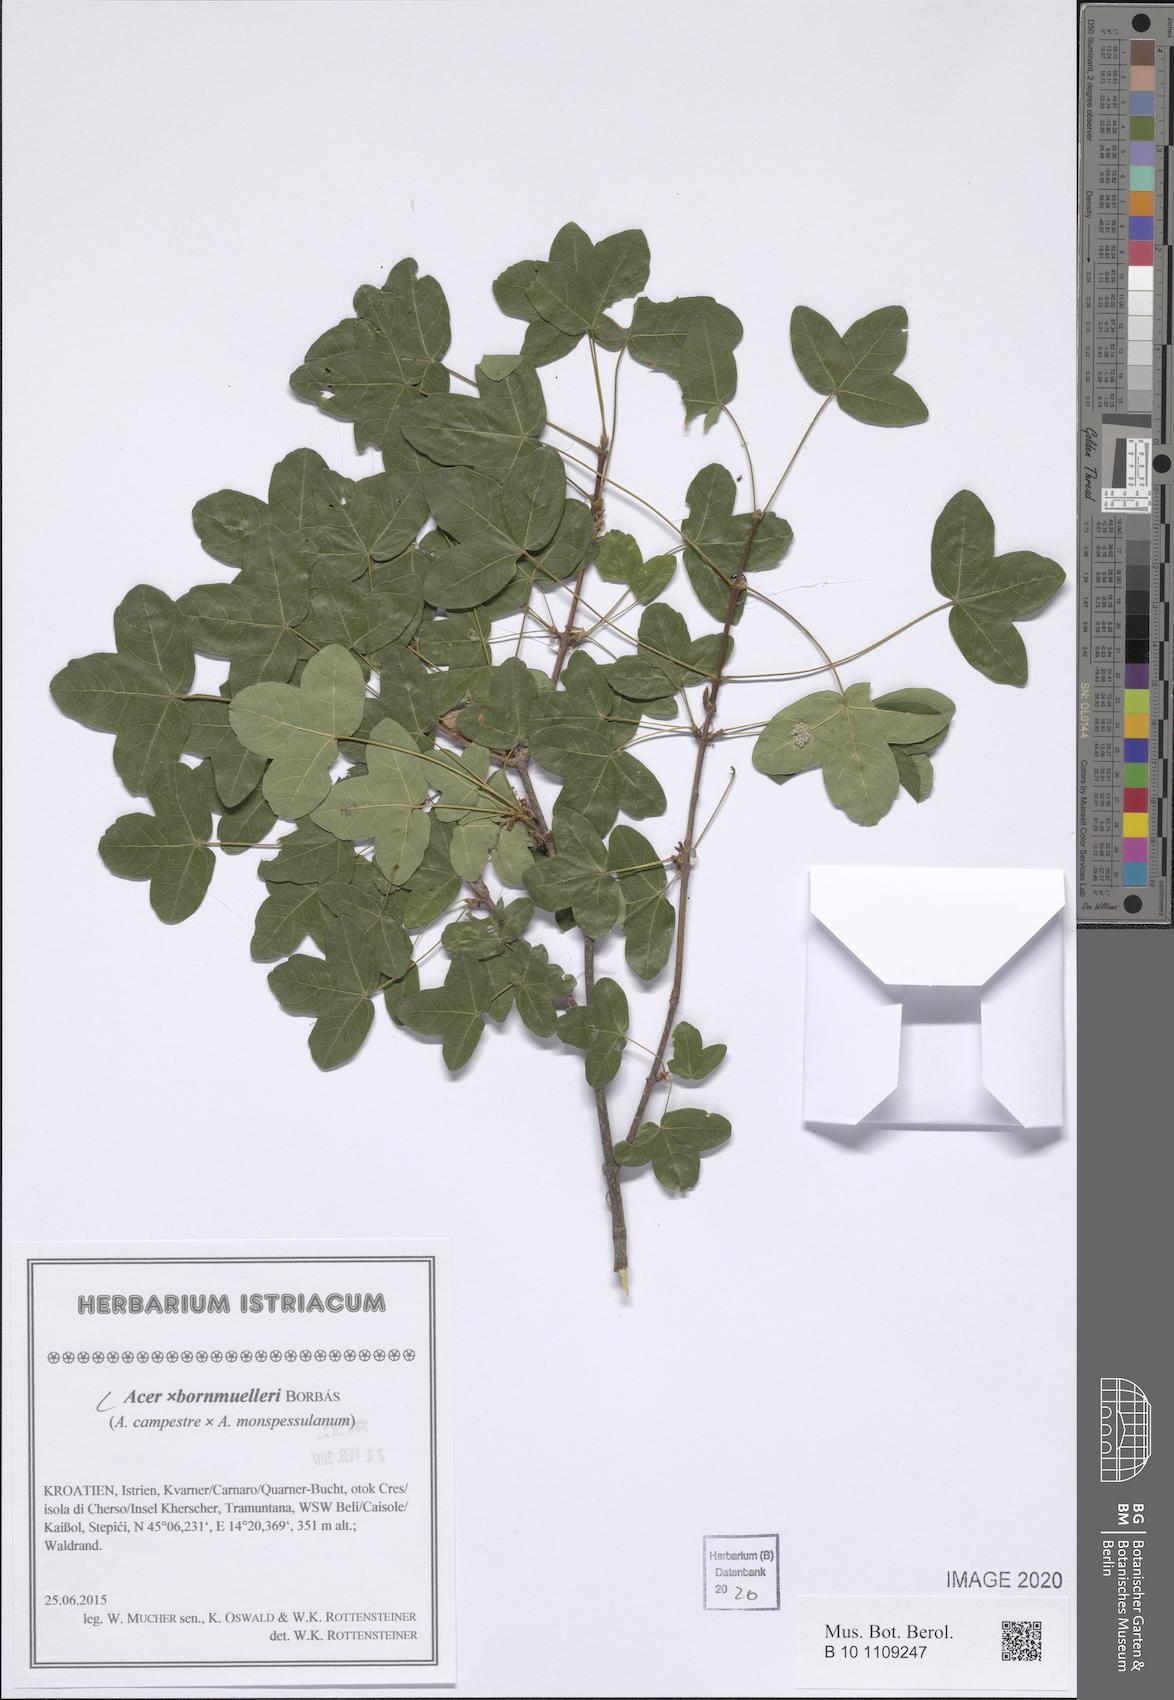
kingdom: Plantae
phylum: Tracheophyta
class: Magnoliopsida
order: Sapindales
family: Aceraceae
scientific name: Aceraceae
